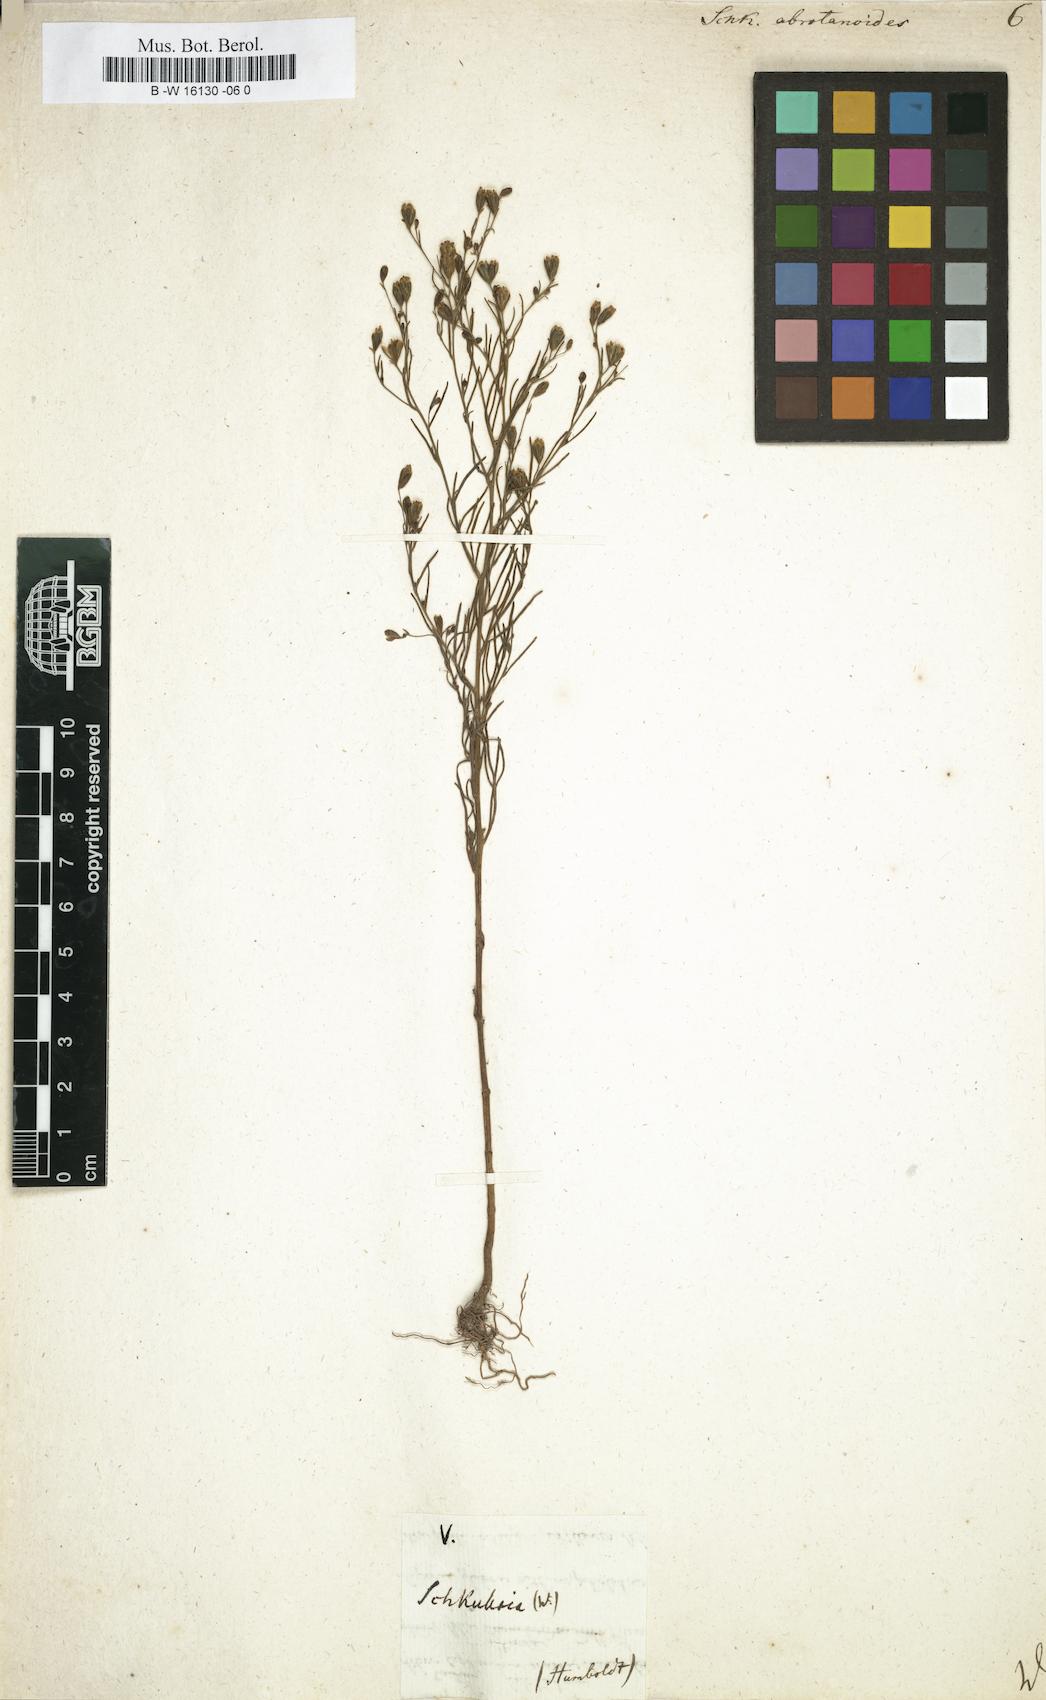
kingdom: Plantae
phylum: Tracheophyta
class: Magnoliopsida
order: Asterales
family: Asteraceae
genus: Schkuhria
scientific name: Schkuhria pinnata
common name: Dwarf marigold
